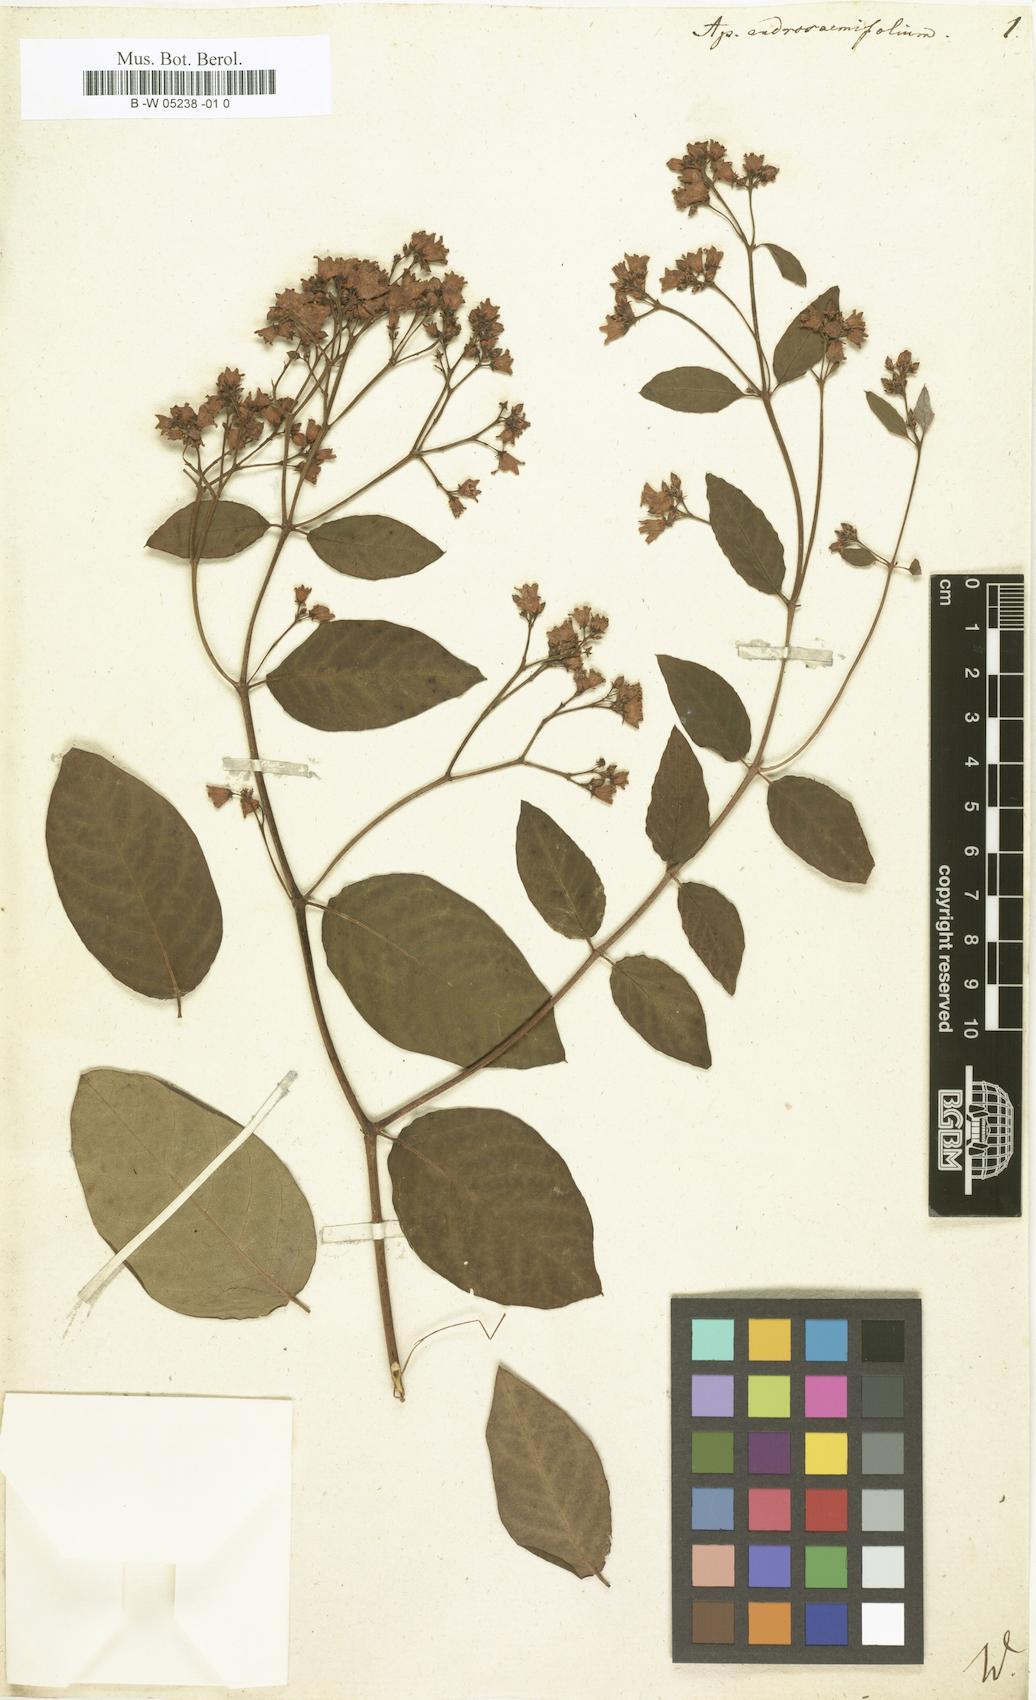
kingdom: Plantae
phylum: Tracheophyta
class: Magnoliopsida
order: Gentianales
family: Apocynaceae
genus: Apocynum
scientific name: Apocynum androsaemifolium
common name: Spreading dogbane
